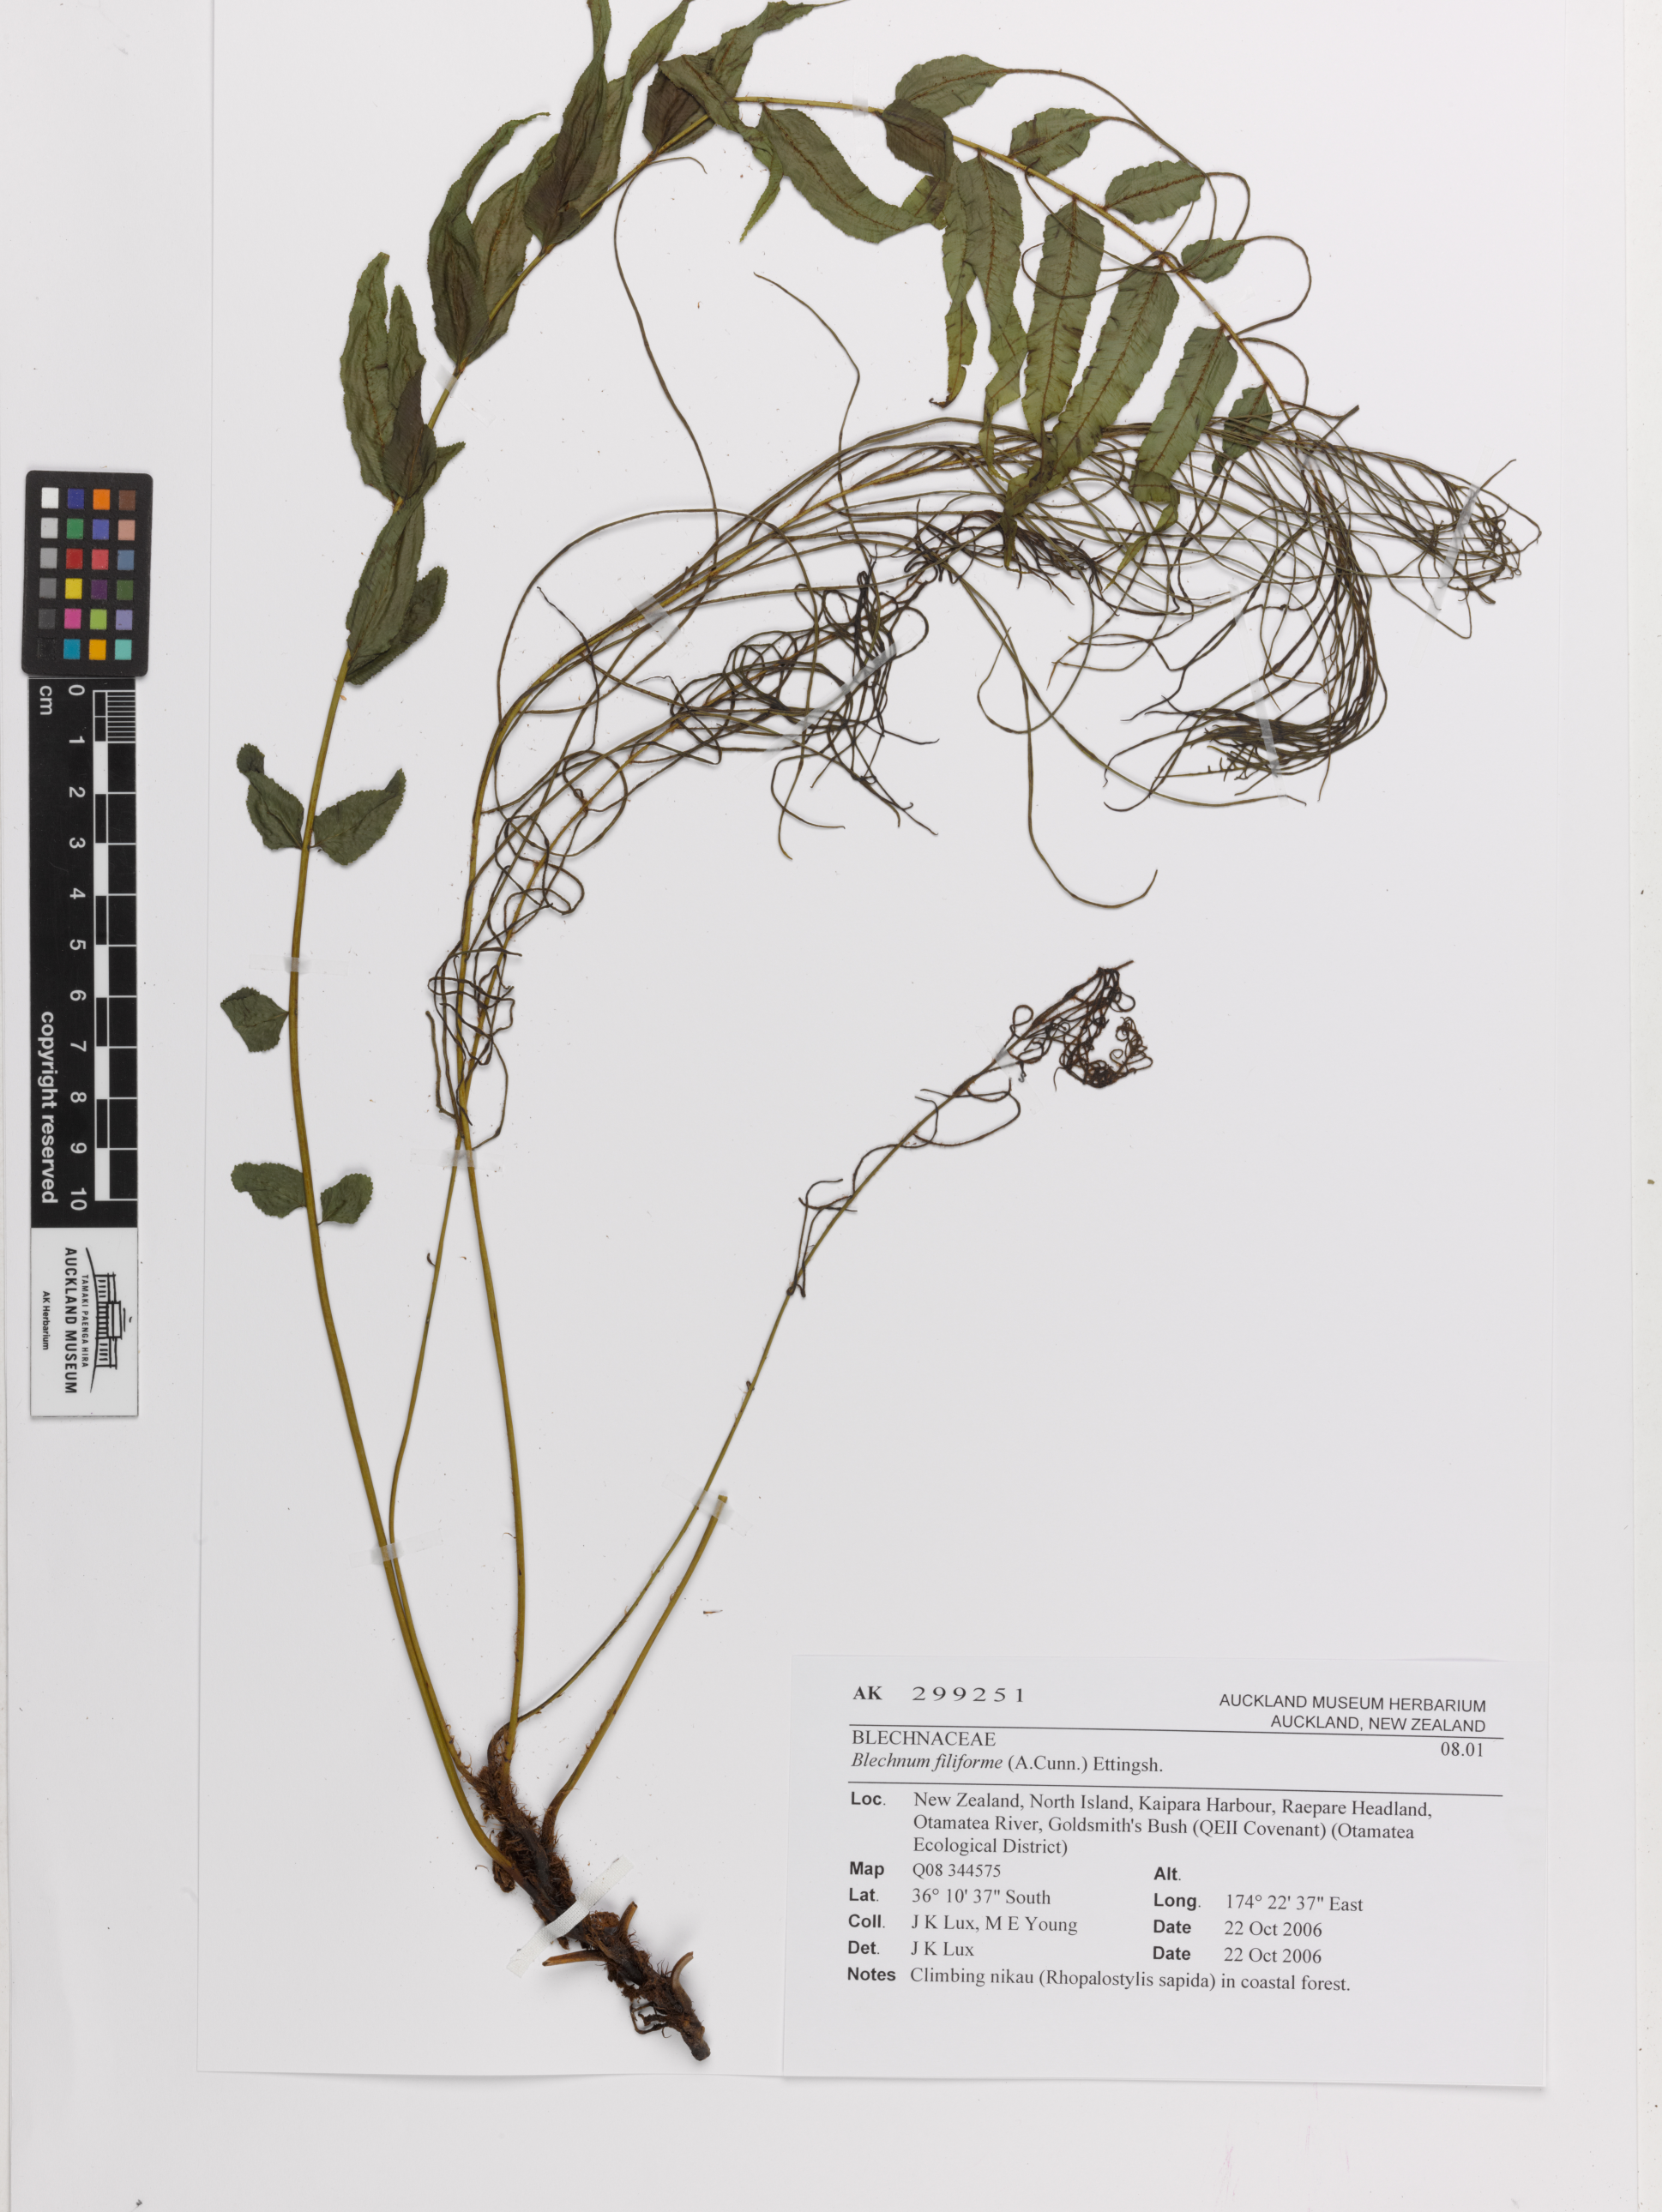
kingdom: Plantae
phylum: Tracheophyta
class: Polypodiopsida
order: Polypodiales
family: Blechnaceae
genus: Icarus
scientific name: Icarus filiformis
